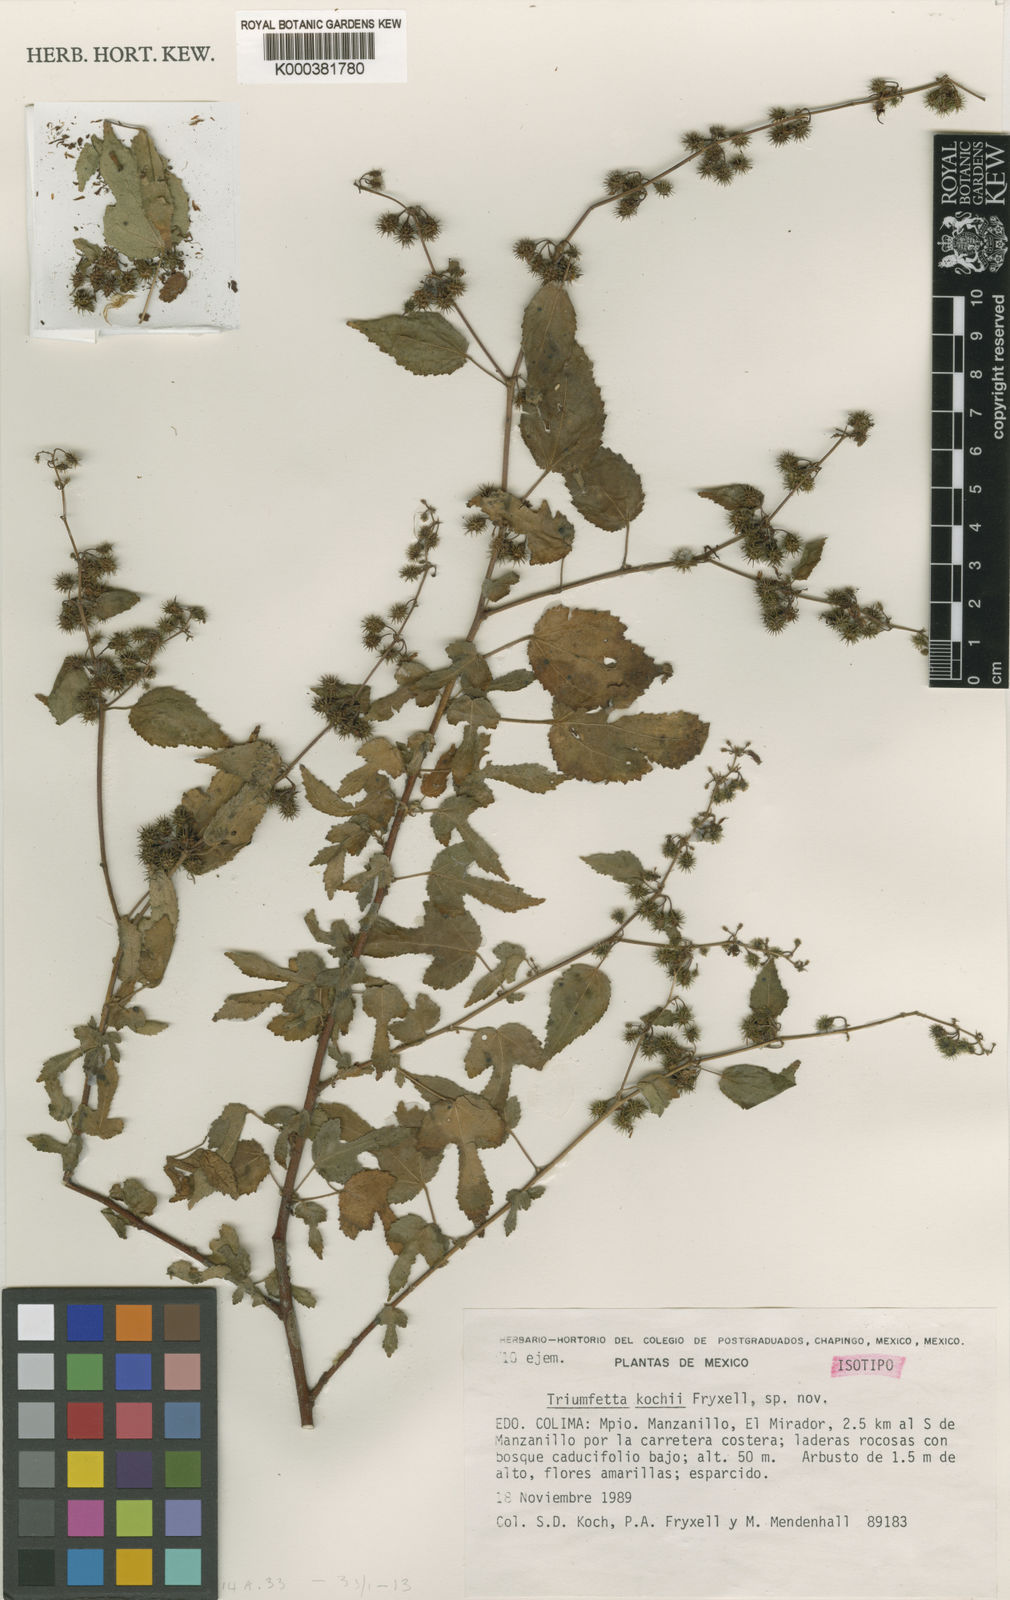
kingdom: Plantae
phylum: Tracheophyta
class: Magnoliopsida
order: Malvales
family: Malvaceae
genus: Triumfetta
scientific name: Triumfetta kochii
